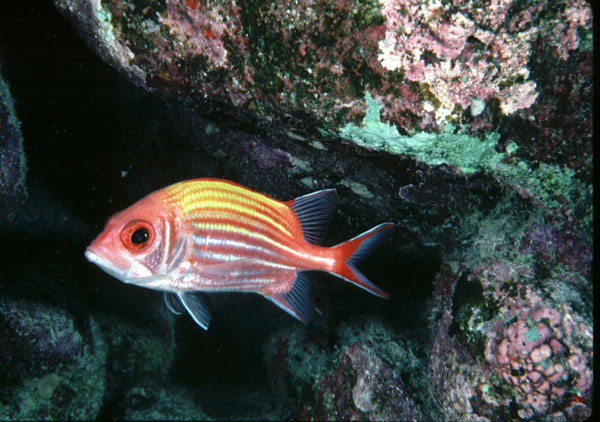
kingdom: Animalia
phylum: Chordata
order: Beryciformes
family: Holocentridae
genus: Sargocentron
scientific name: Sargocentron ensifer
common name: Yellow-striped squirrelfish
